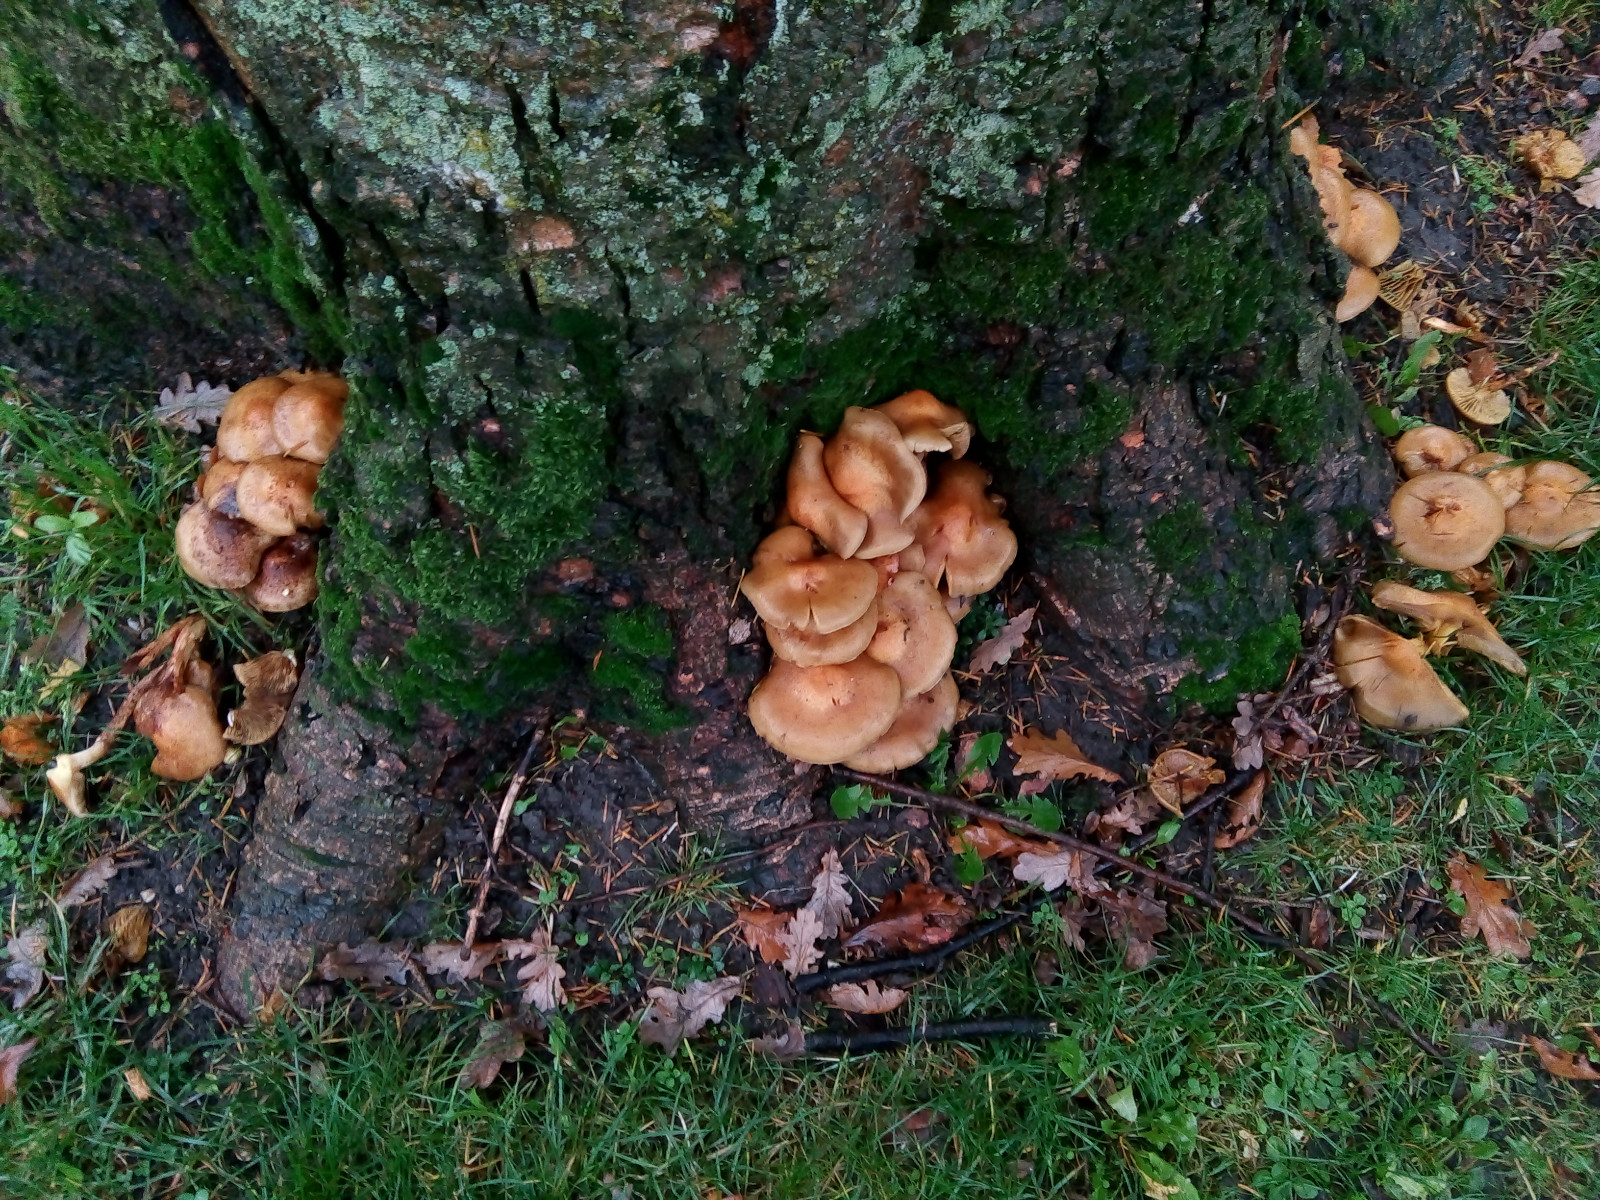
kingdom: Fungi
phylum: Basidiomycota
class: Agaricomycetes
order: Agaricales
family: Strophariaceae
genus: Pholiota
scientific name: Pholiota squarrosa
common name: krumskællet skælhat
